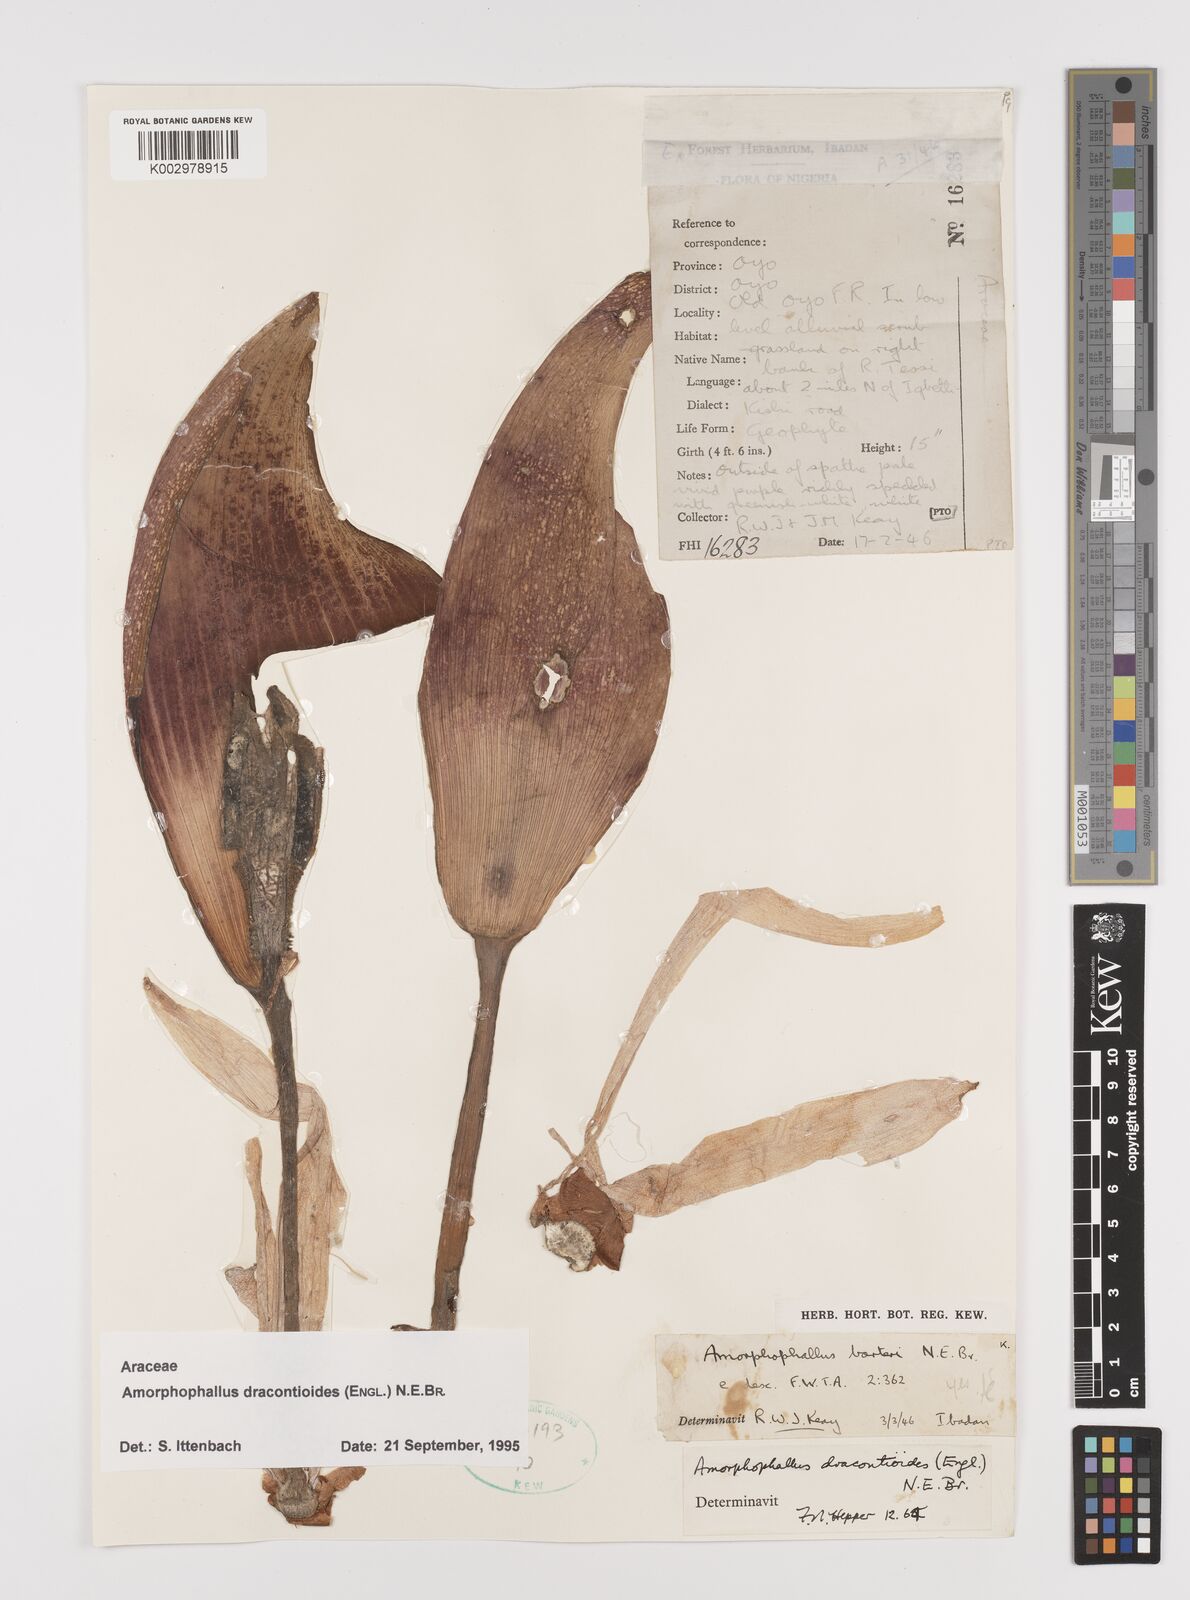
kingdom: Plantae
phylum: Tracheophyta
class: Liliopsida
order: Alismatales
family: Araceae
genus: Amorphophallus
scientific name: Amorphophallus dracontioides
